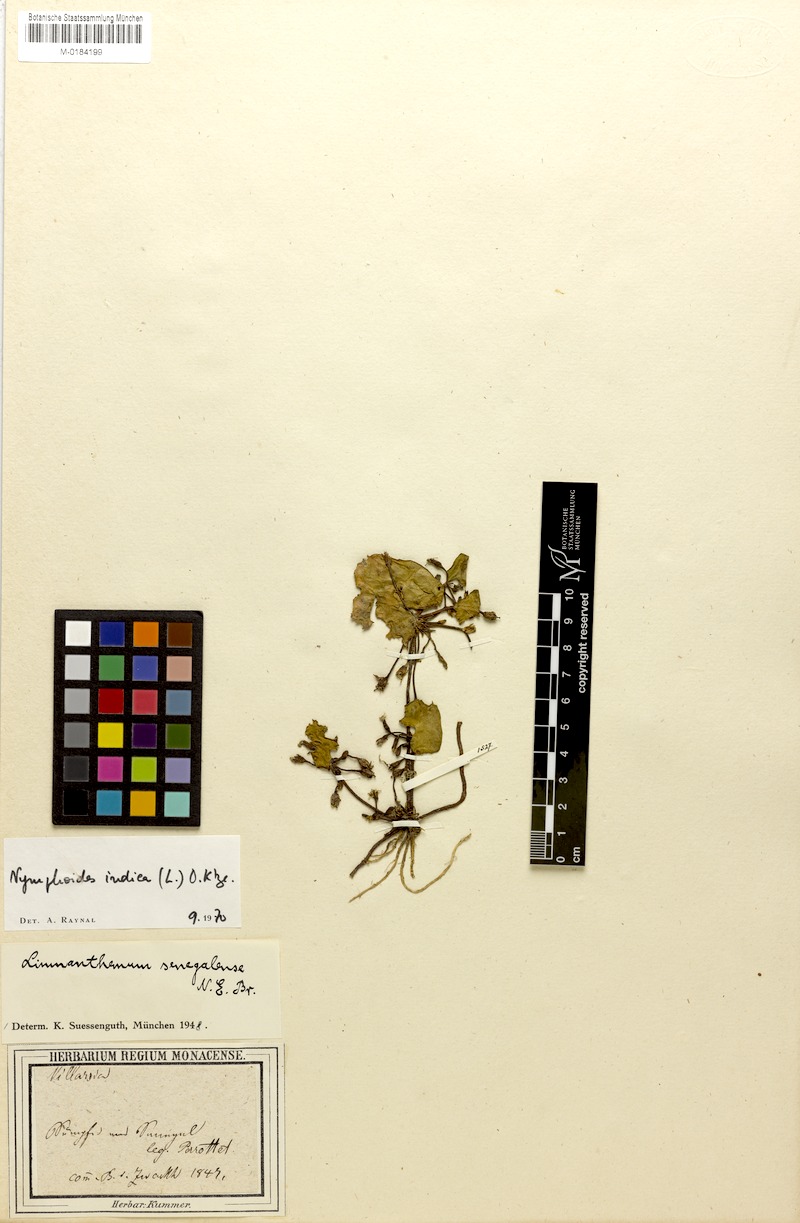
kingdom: Plantae
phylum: Tracheophyta
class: Magnoliopsida
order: Asterales
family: Menyanthaceae
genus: Nymphoides
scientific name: Nymphoides indica
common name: Water-snowflake
